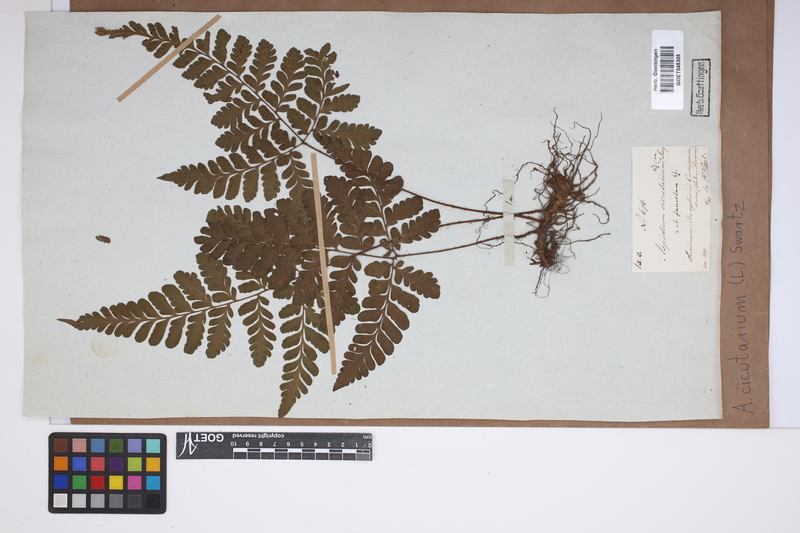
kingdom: Plantae
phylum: Tracheophyta
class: Polypodiopsida
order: Polypodiales
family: Tectariaceae
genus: Tectaria
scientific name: Tectaria cicutaria
